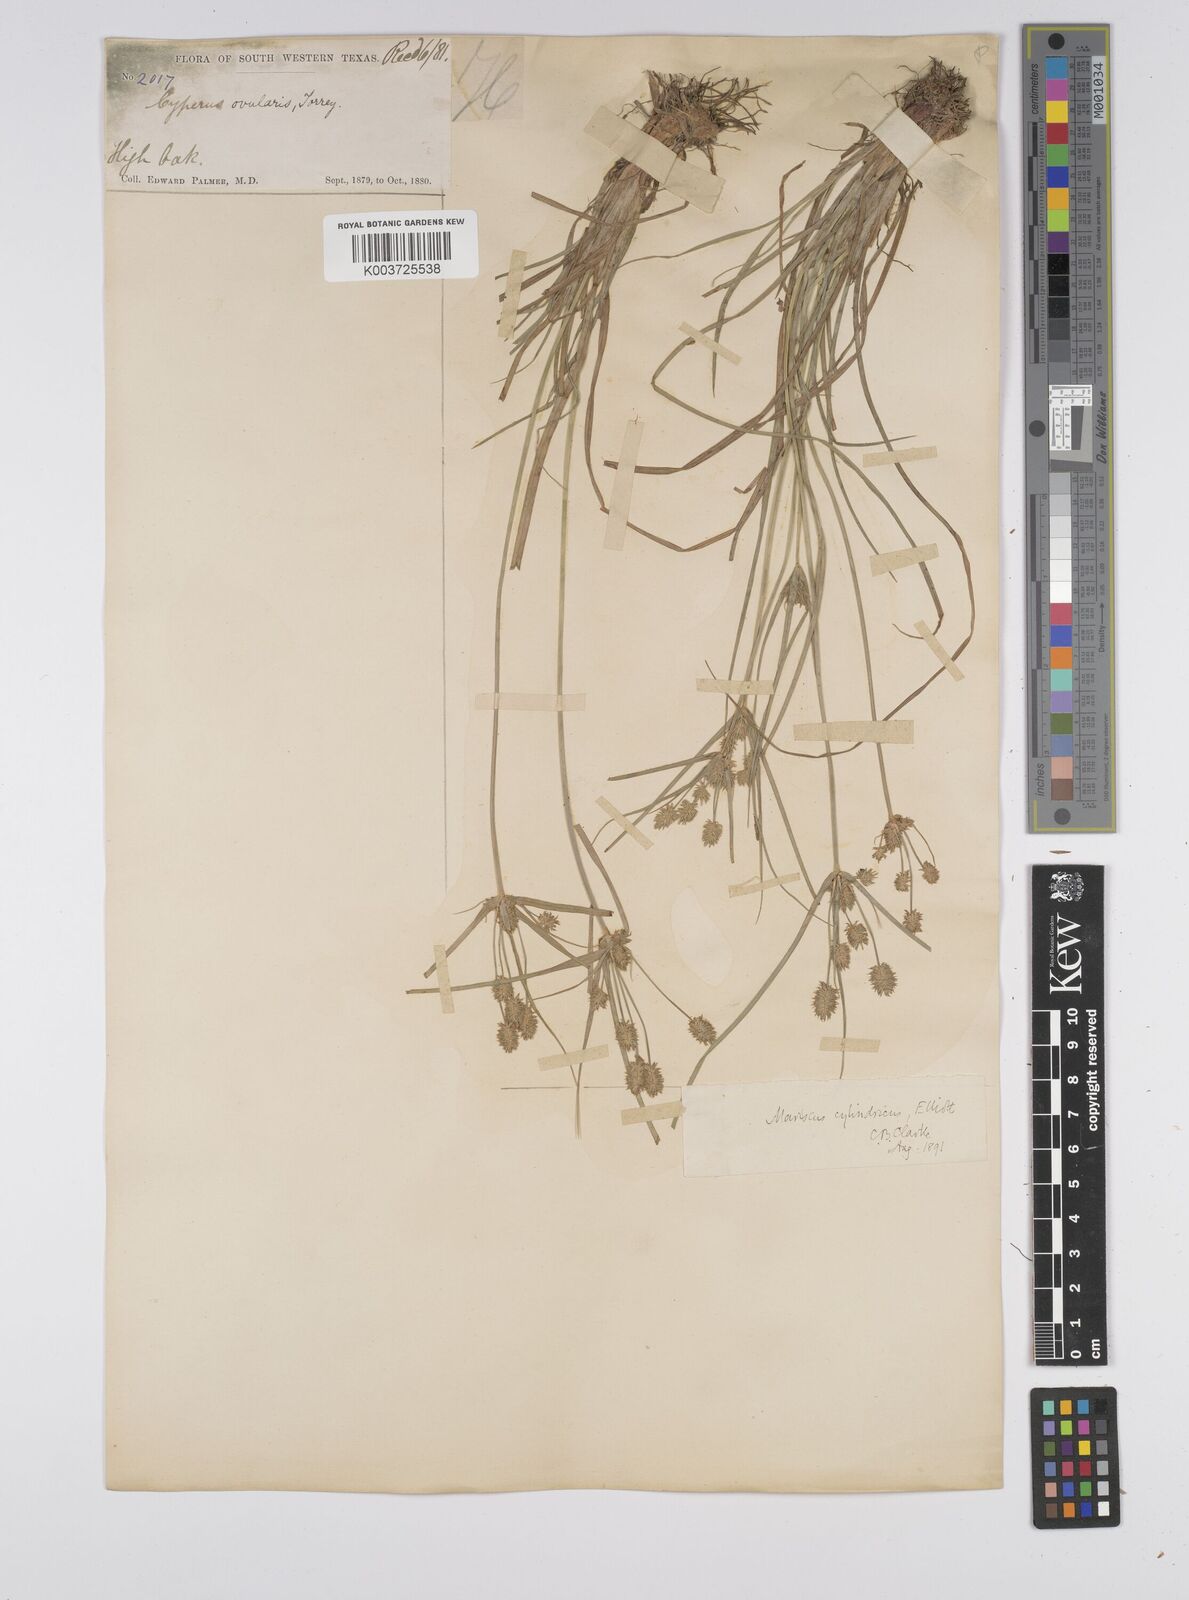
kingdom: Plantae
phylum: Tracheophyta
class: Liliopsida
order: Poales
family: Cyperaceae
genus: Cyperus
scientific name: Cyperus retrorsus
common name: Pinebarren flat sedge
